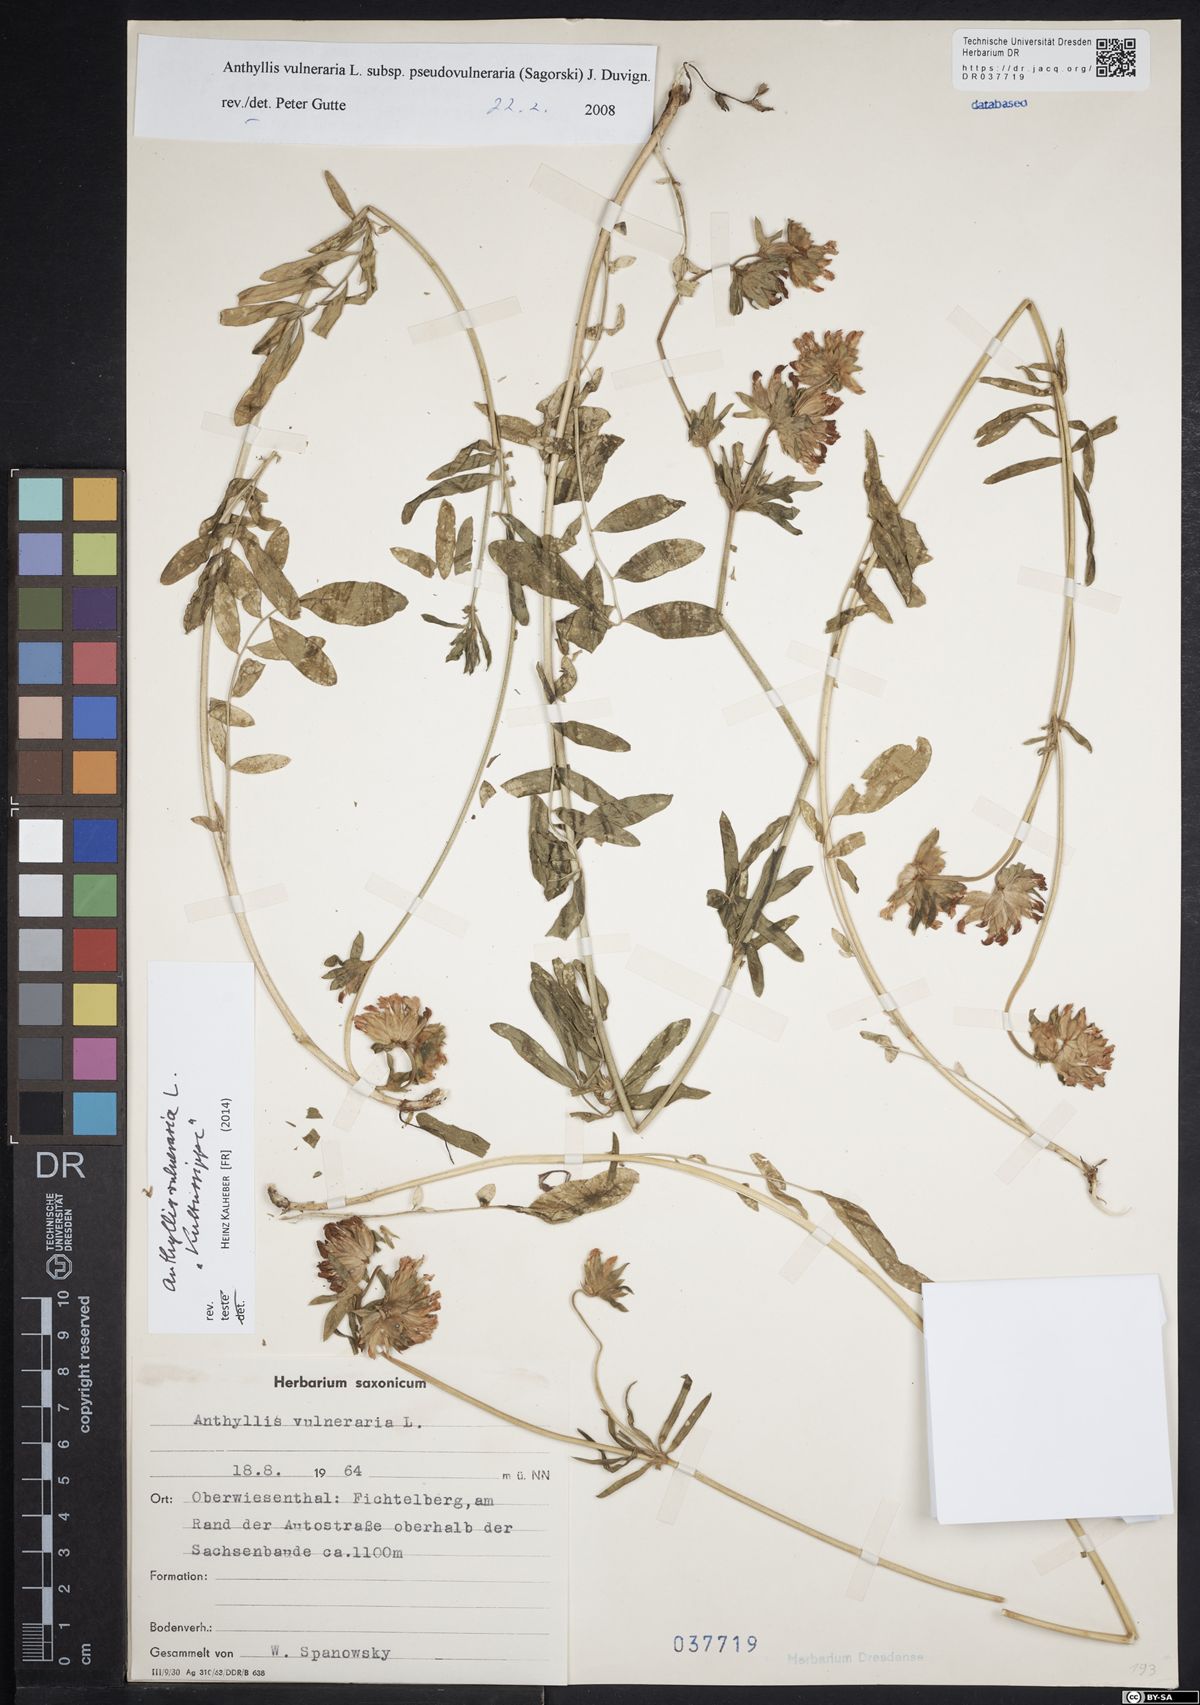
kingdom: Plantae
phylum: Tracheophyta
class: Magnoliopsida
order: Fabales
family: Fabaceae
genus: Anthyllis
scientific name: Anthyllis vulneraria
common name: Kidney vetch
